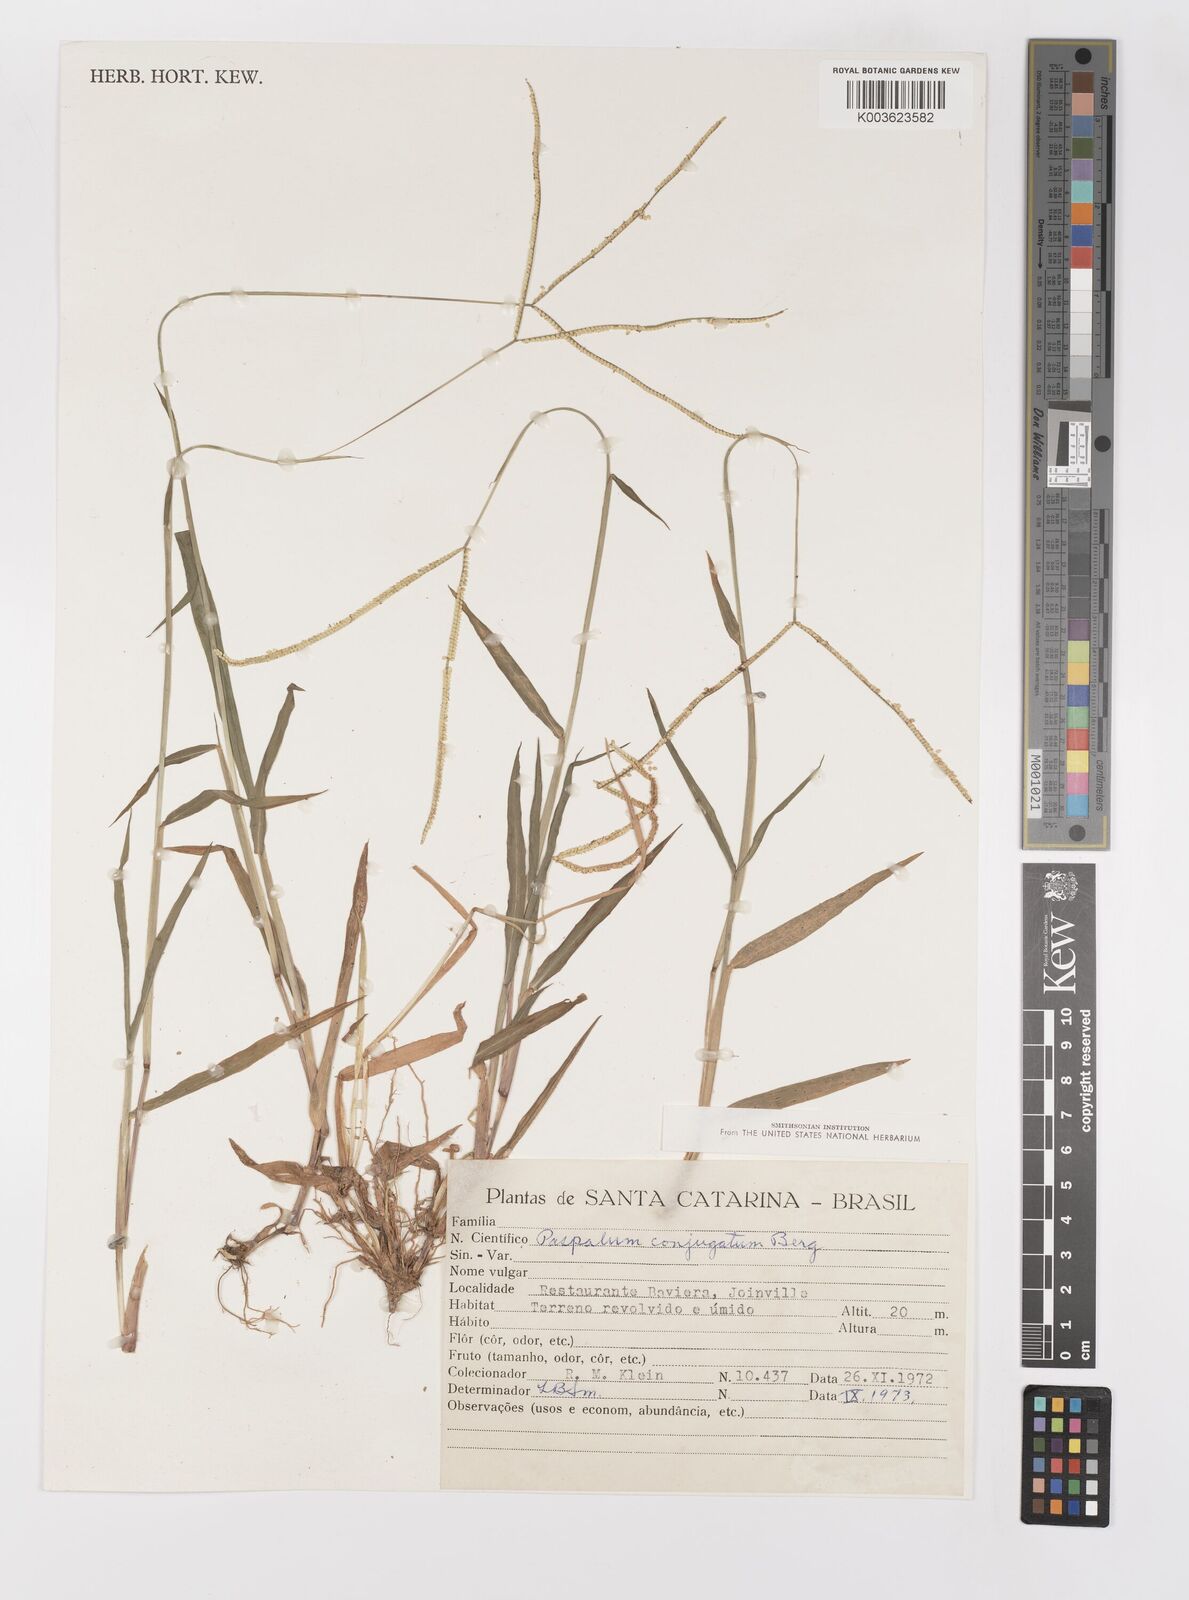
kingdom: Plantae
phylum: Tracheophyta
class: Liliopsida
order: Poales
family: Poaceae
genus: Paspalum
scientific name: Paspalum conjugatum
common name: Hilograss
